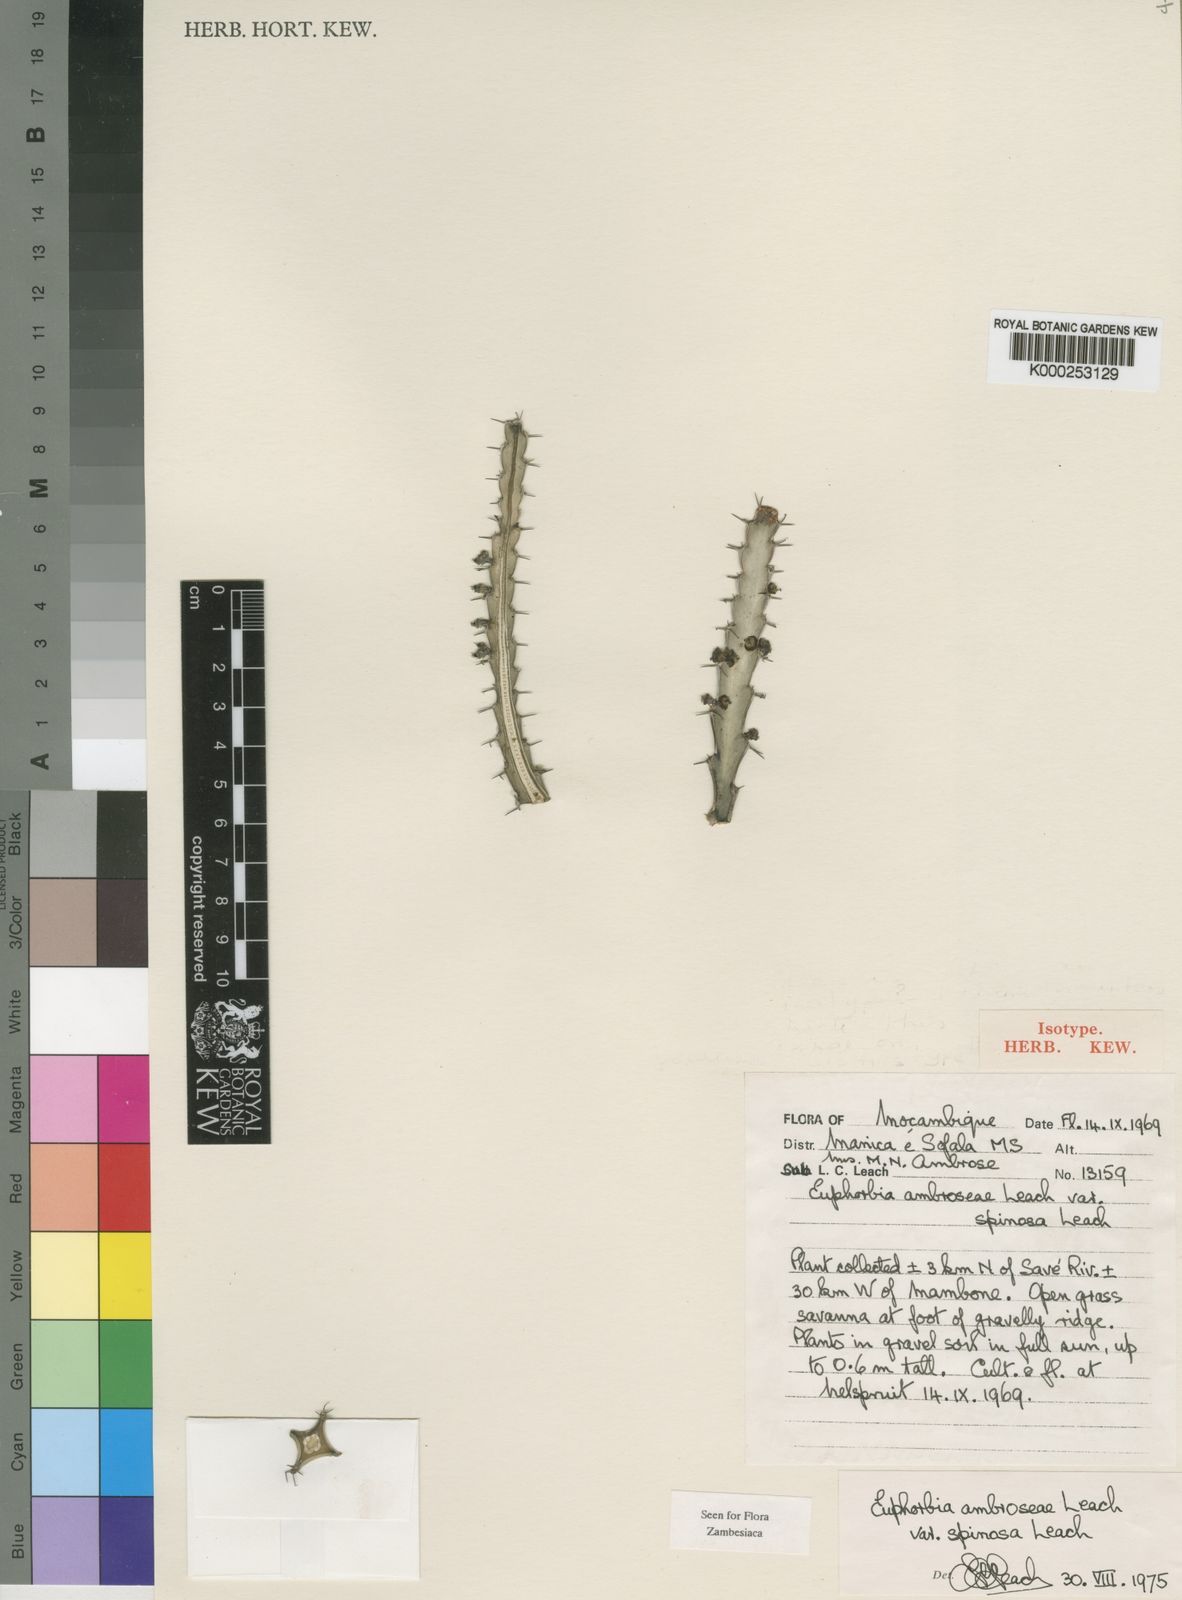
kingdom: Plantae
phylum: Tracheophyta
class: Magnoliopsida
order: Malpighiales
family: Euphorbiaceae
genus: Euphorbia
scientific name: Euphorbia ambroseae
